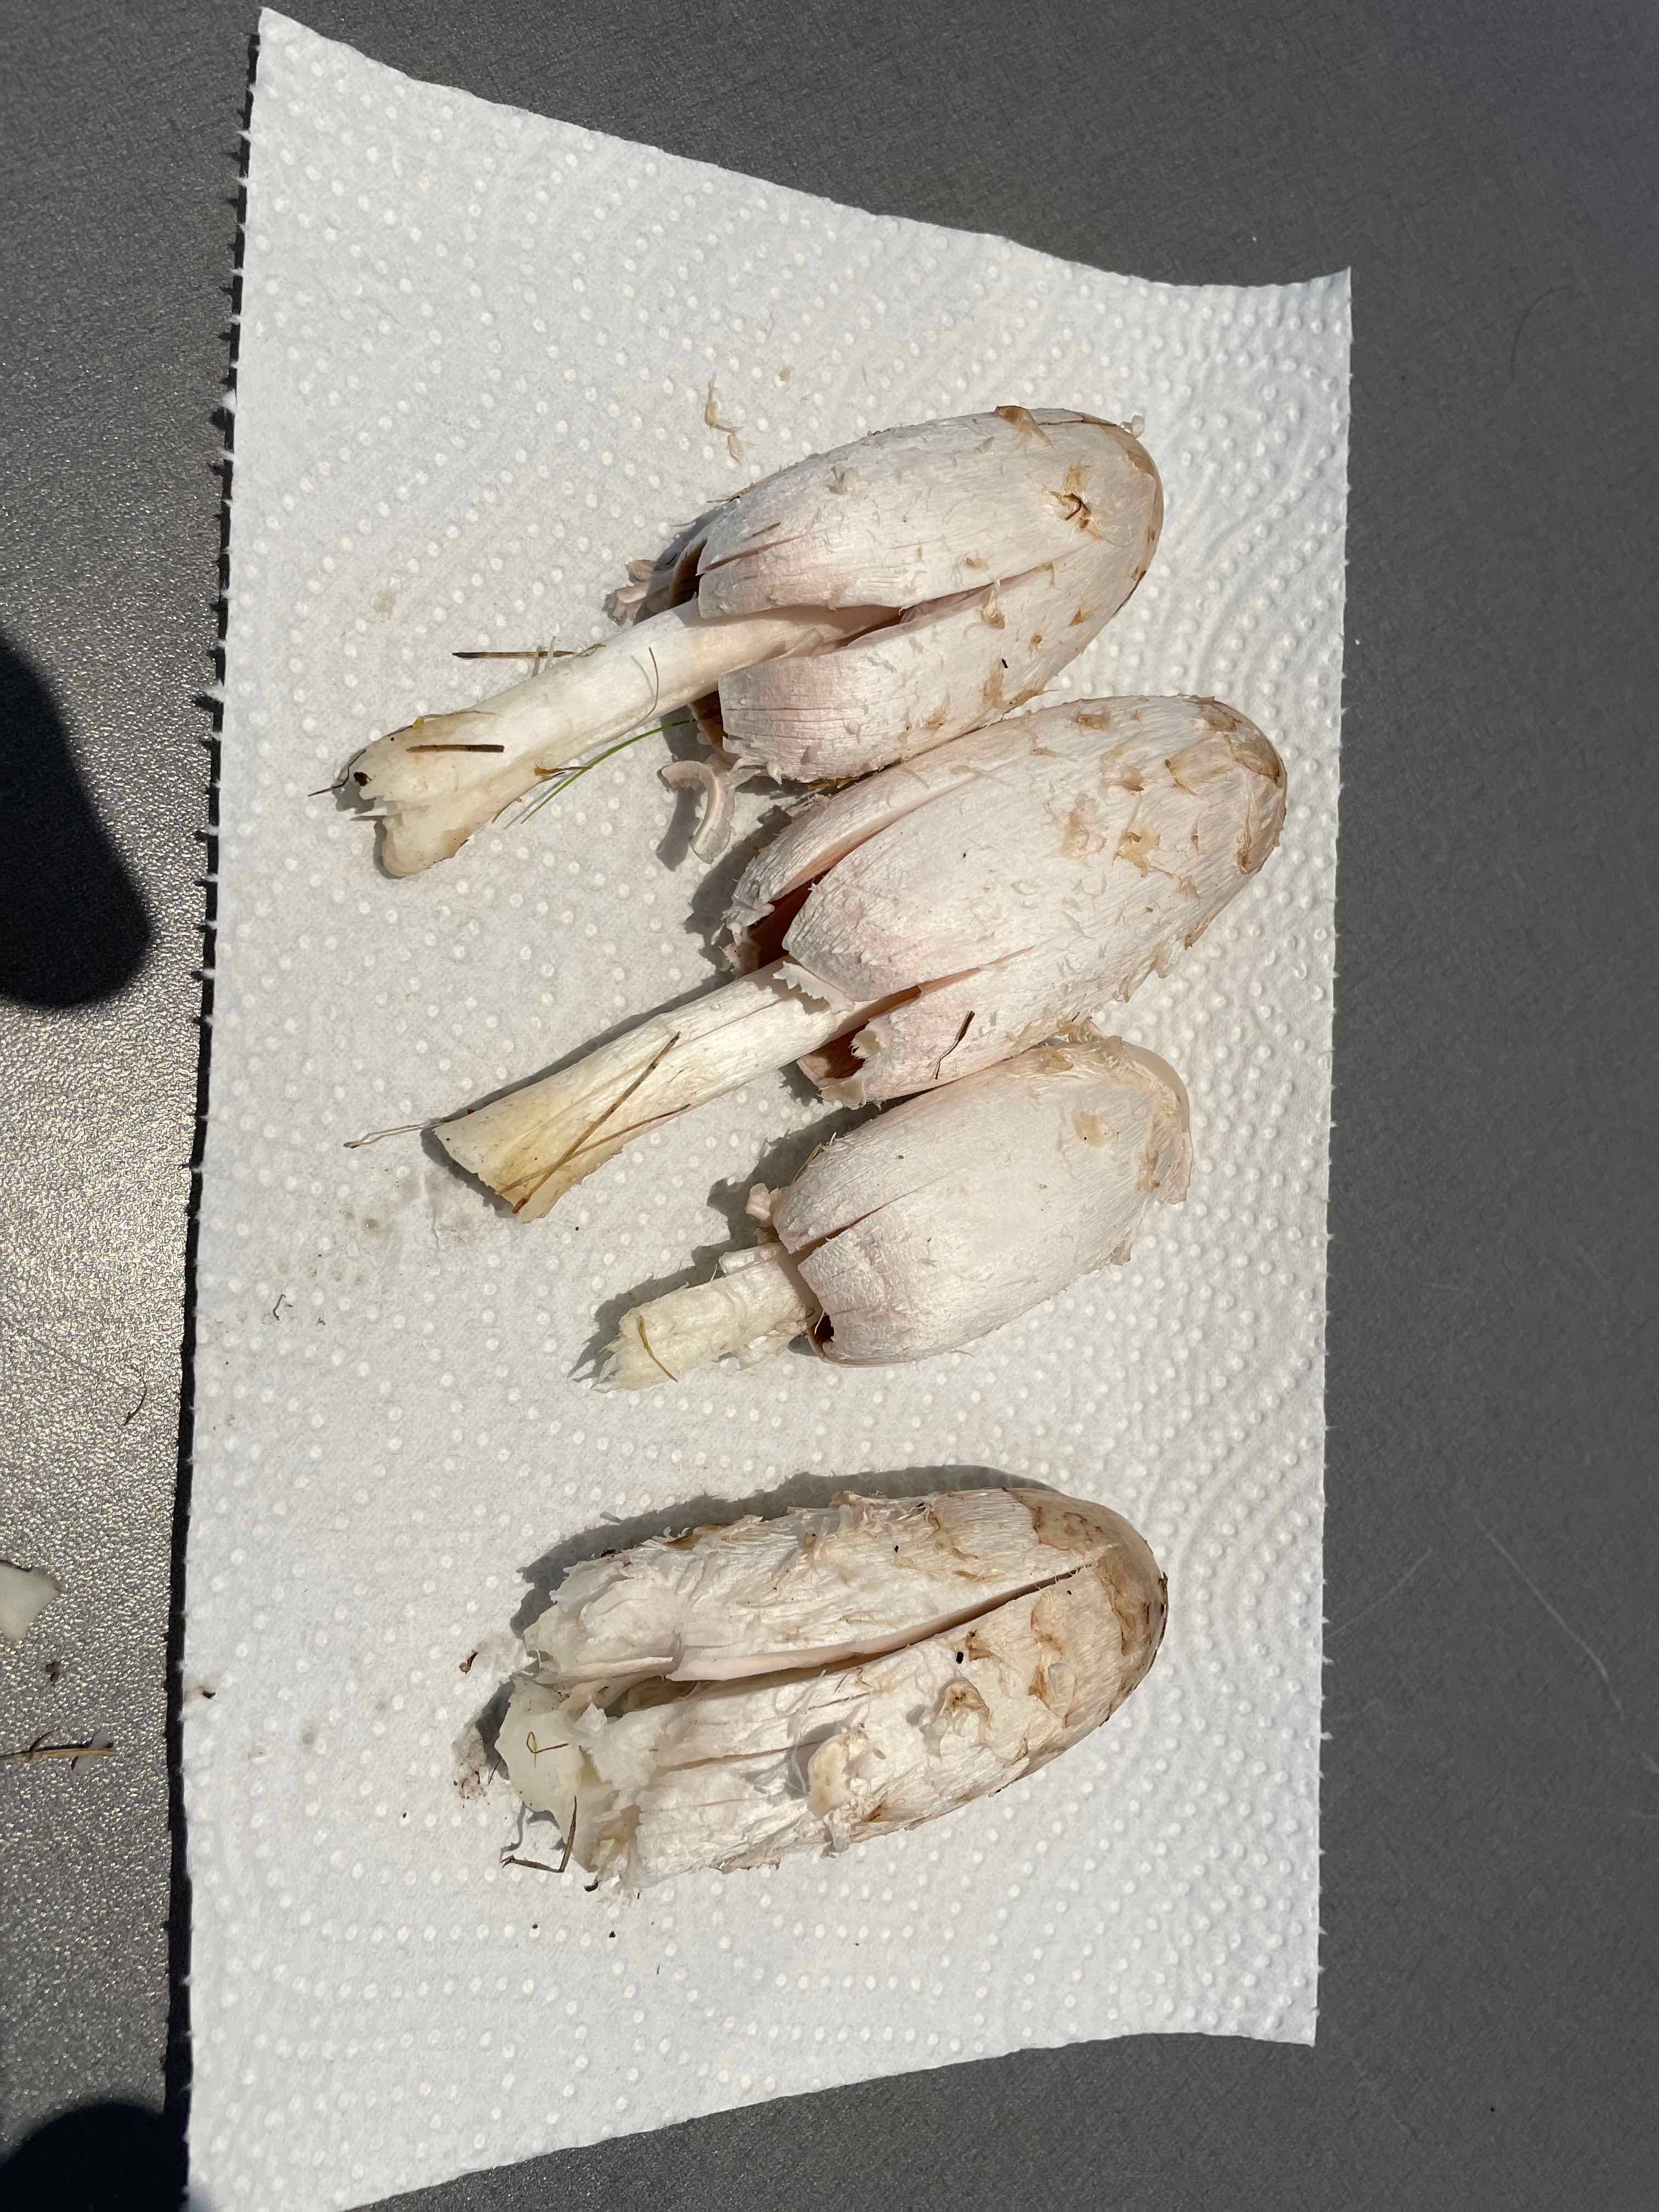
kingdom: Fungi
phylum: Basidiomycota
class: Agaricomycetes
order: Agaricales
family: Agaricaceae
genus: Coprinus
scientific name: Coprinus comatus
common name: stor parykhat
